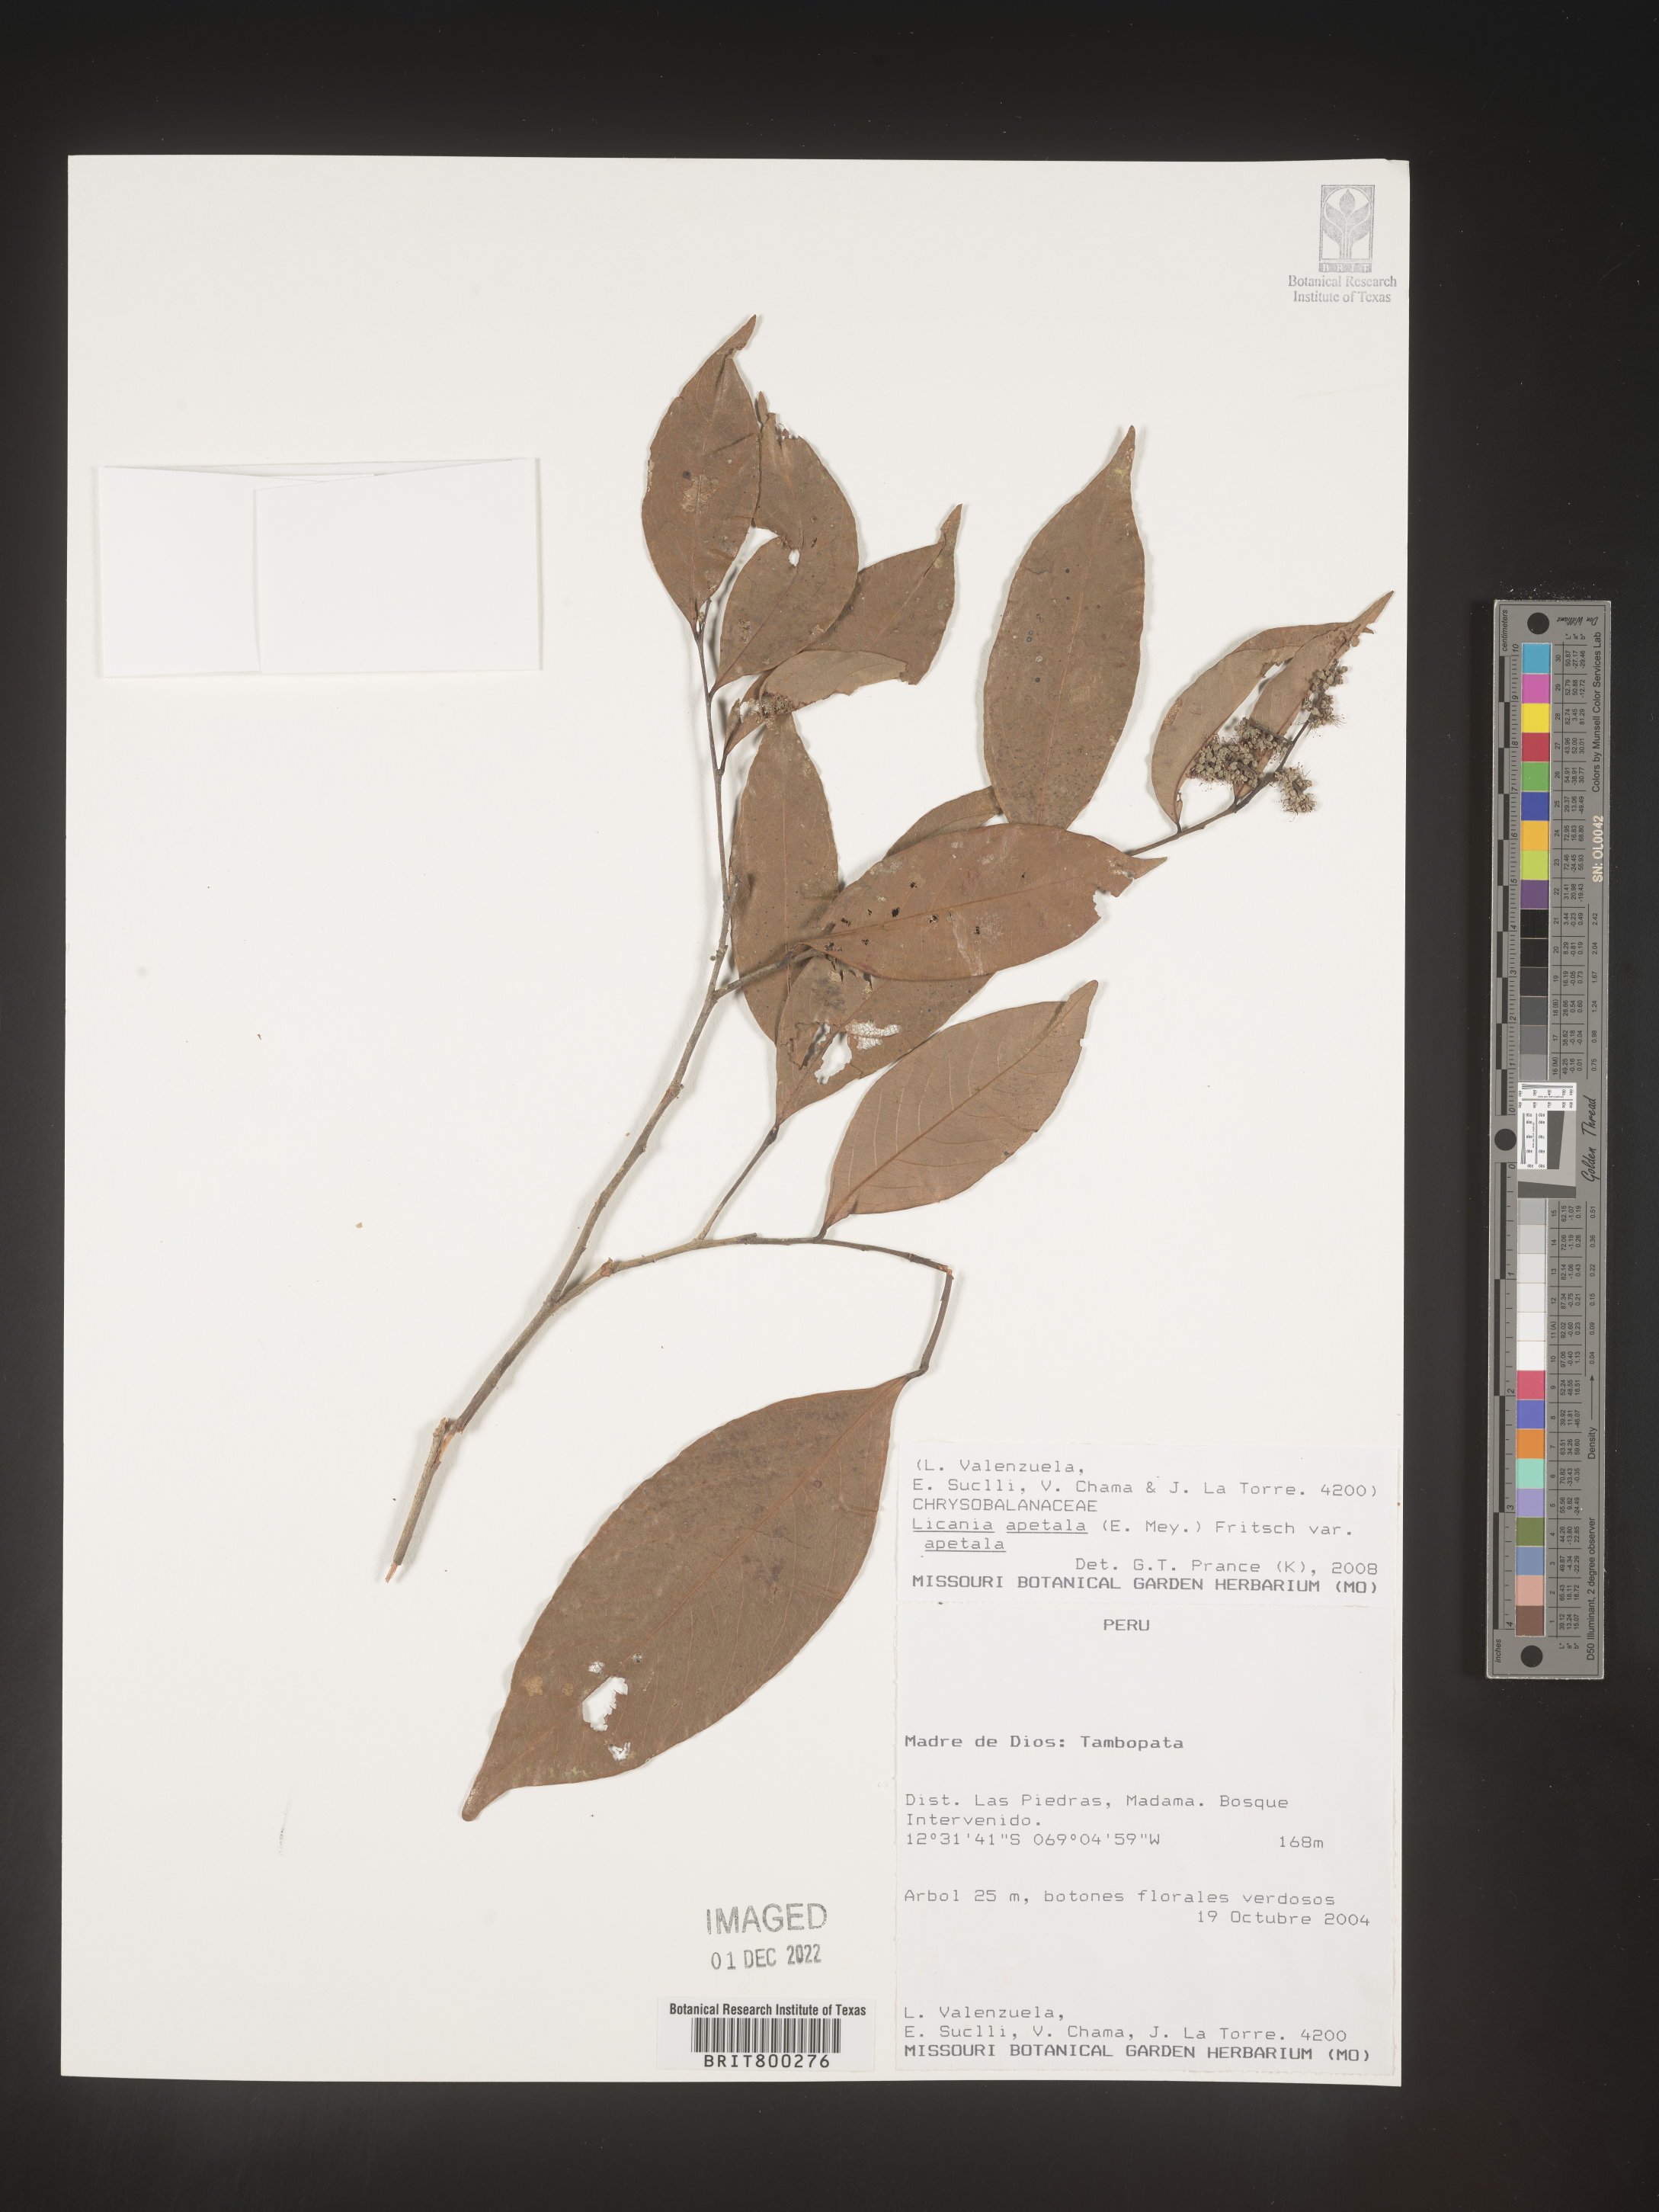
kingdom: Plantae
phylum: Tracheophyta
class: Magnoliopsida
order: Malpighiales
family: Chrysobalanaceae
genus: Geobalanus
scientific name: Geobalanus oblongifolius
